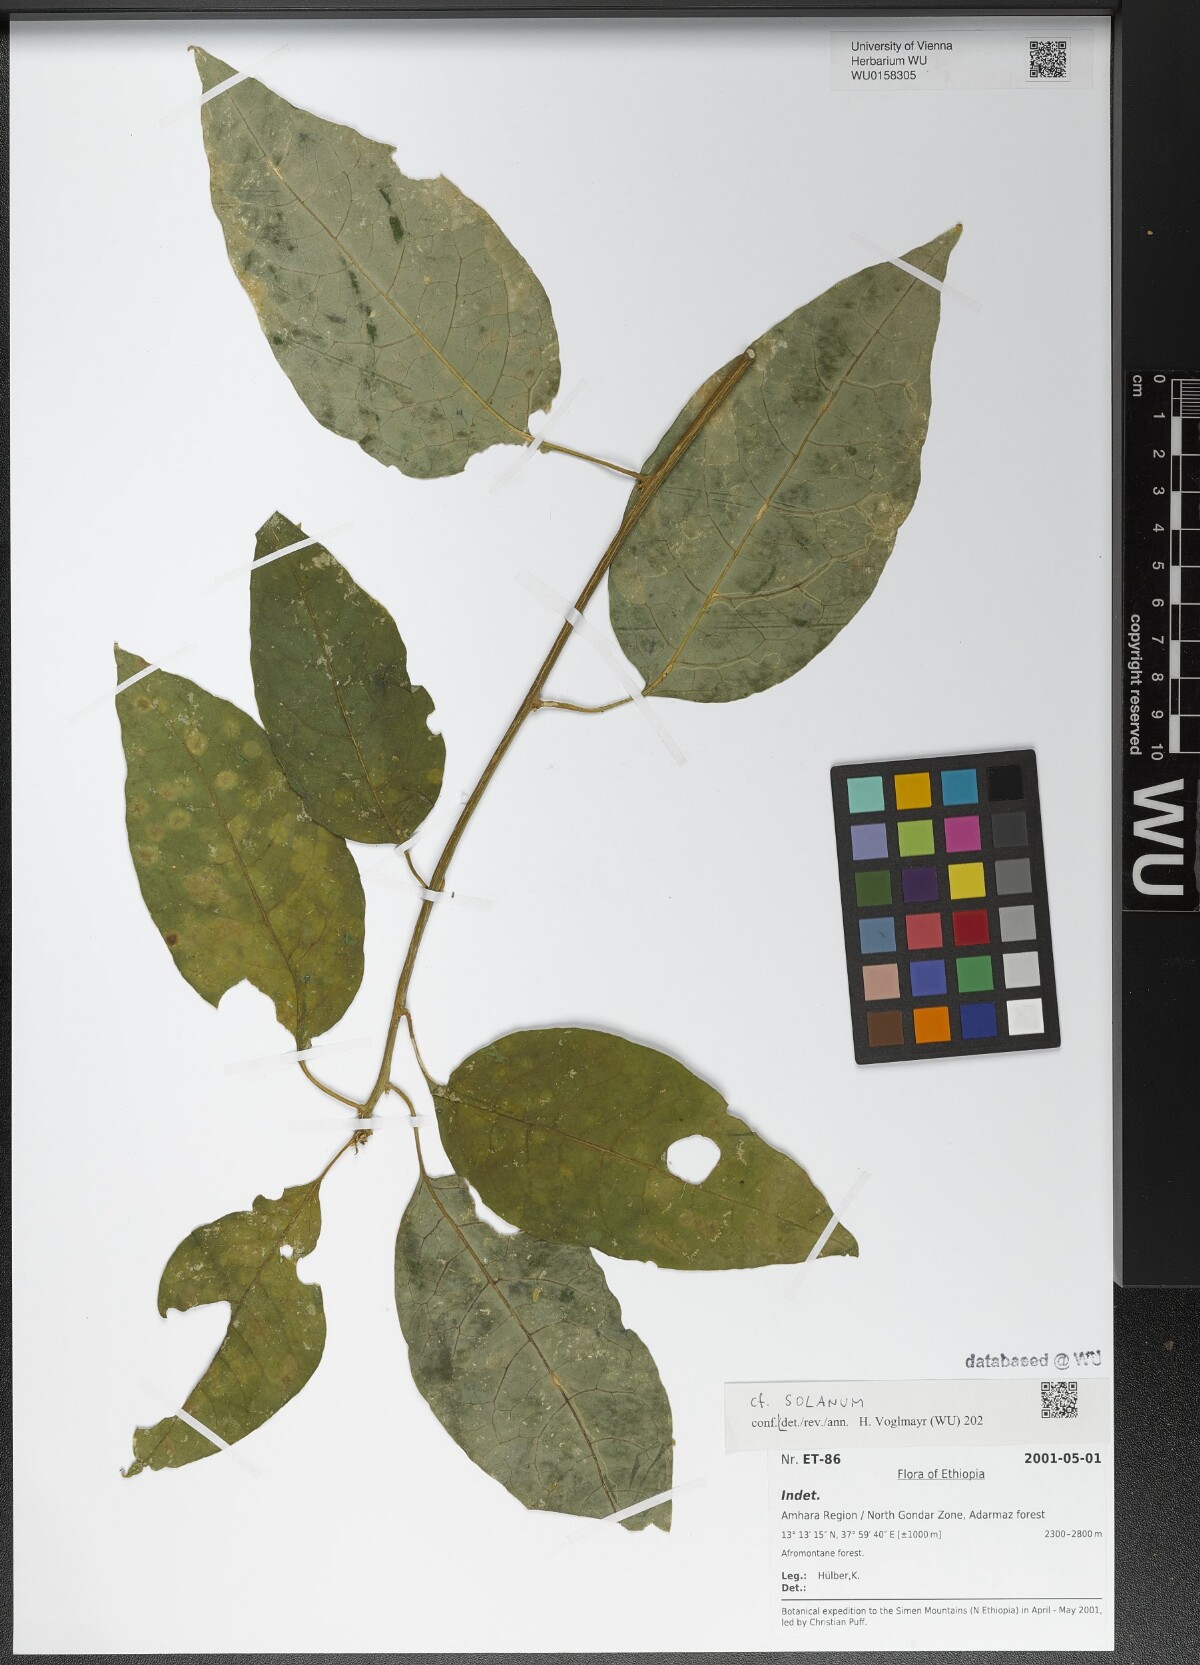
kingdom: Plantae
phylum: Tracheophyta
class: Magnoliopsida
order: Solanales
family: Solanaceae
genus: Solanum
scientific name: Solanum
